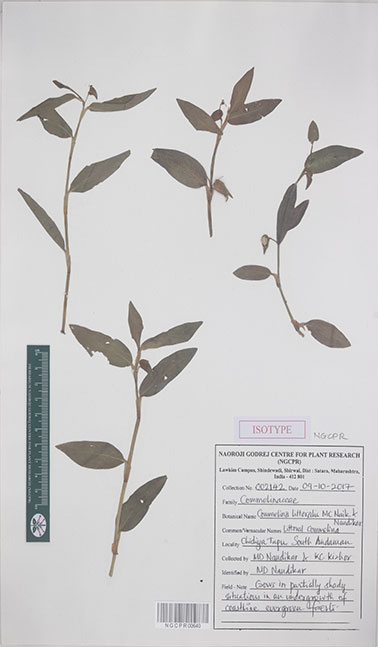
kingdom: Plantae
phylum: Tracheophyta
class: Liliopsida
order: Commelinales
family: Commelinaceae
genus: Commelina
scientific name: Commelina littoralis
